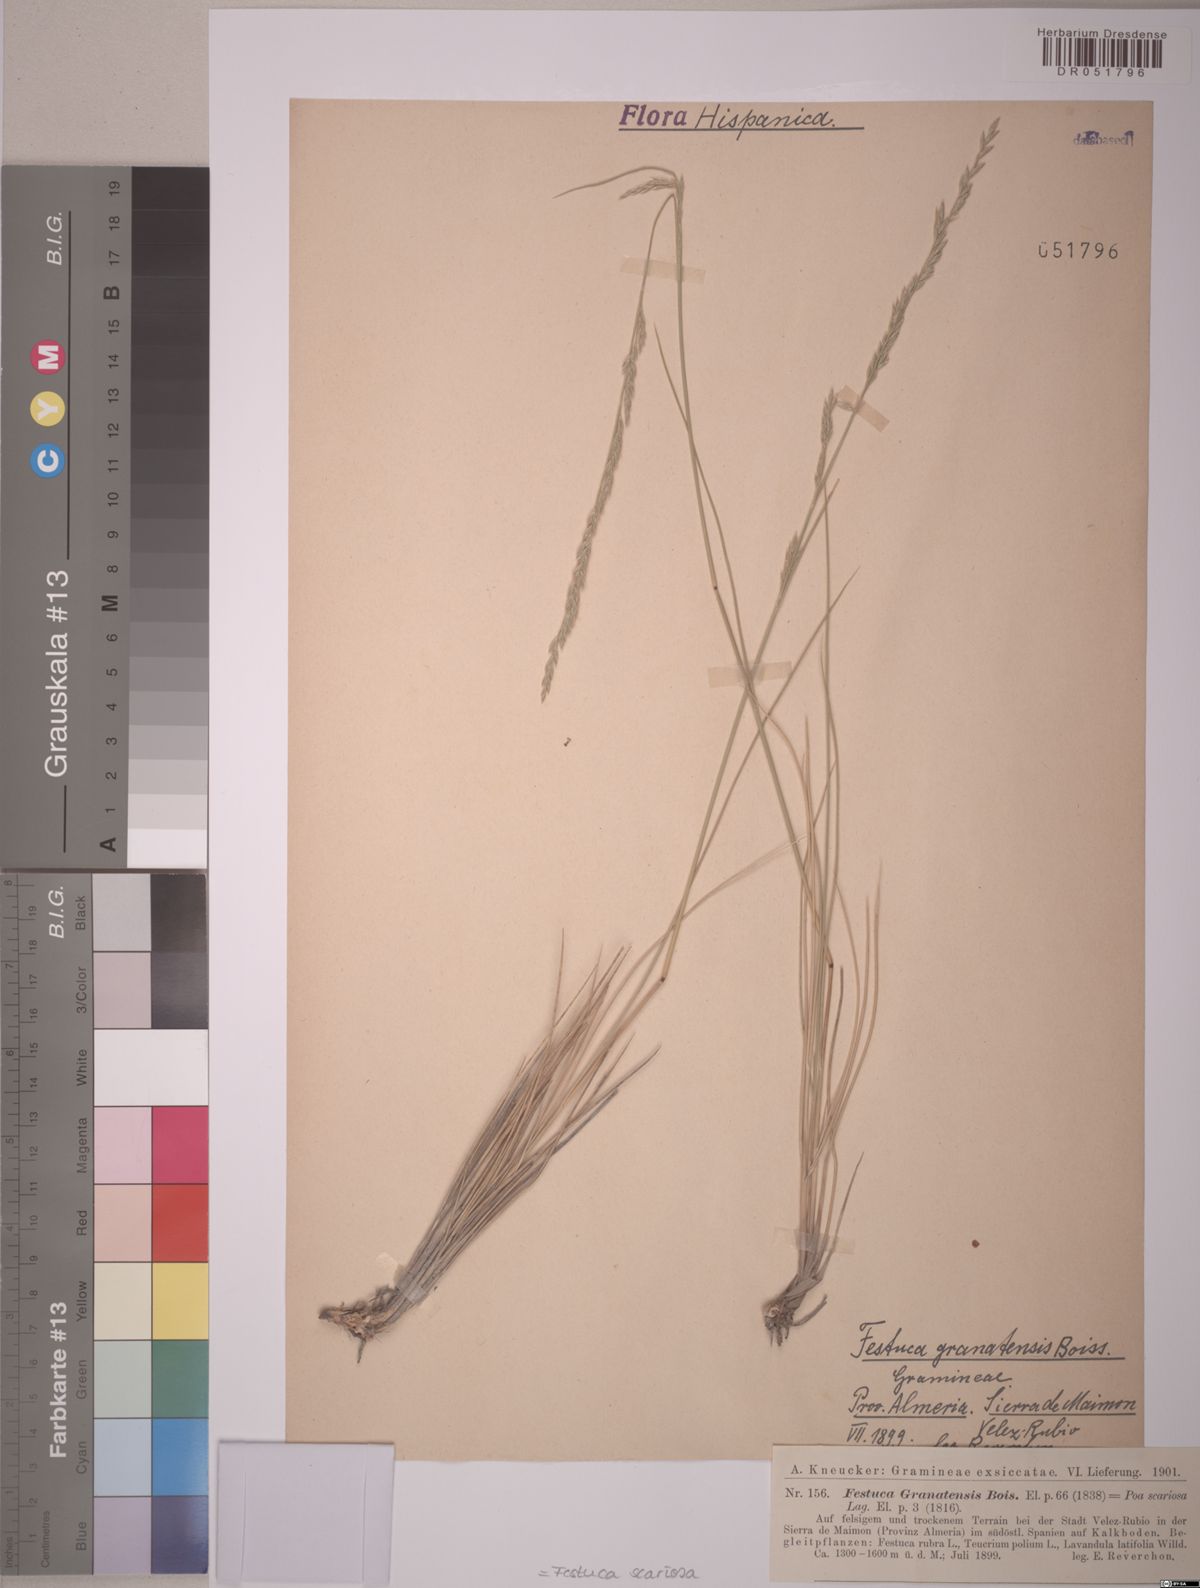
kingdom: Plantae
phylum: Tracheophyta
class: Liliopsida
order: Poales
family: Poaceae
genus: Festuca
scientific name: Festuca scariosa
